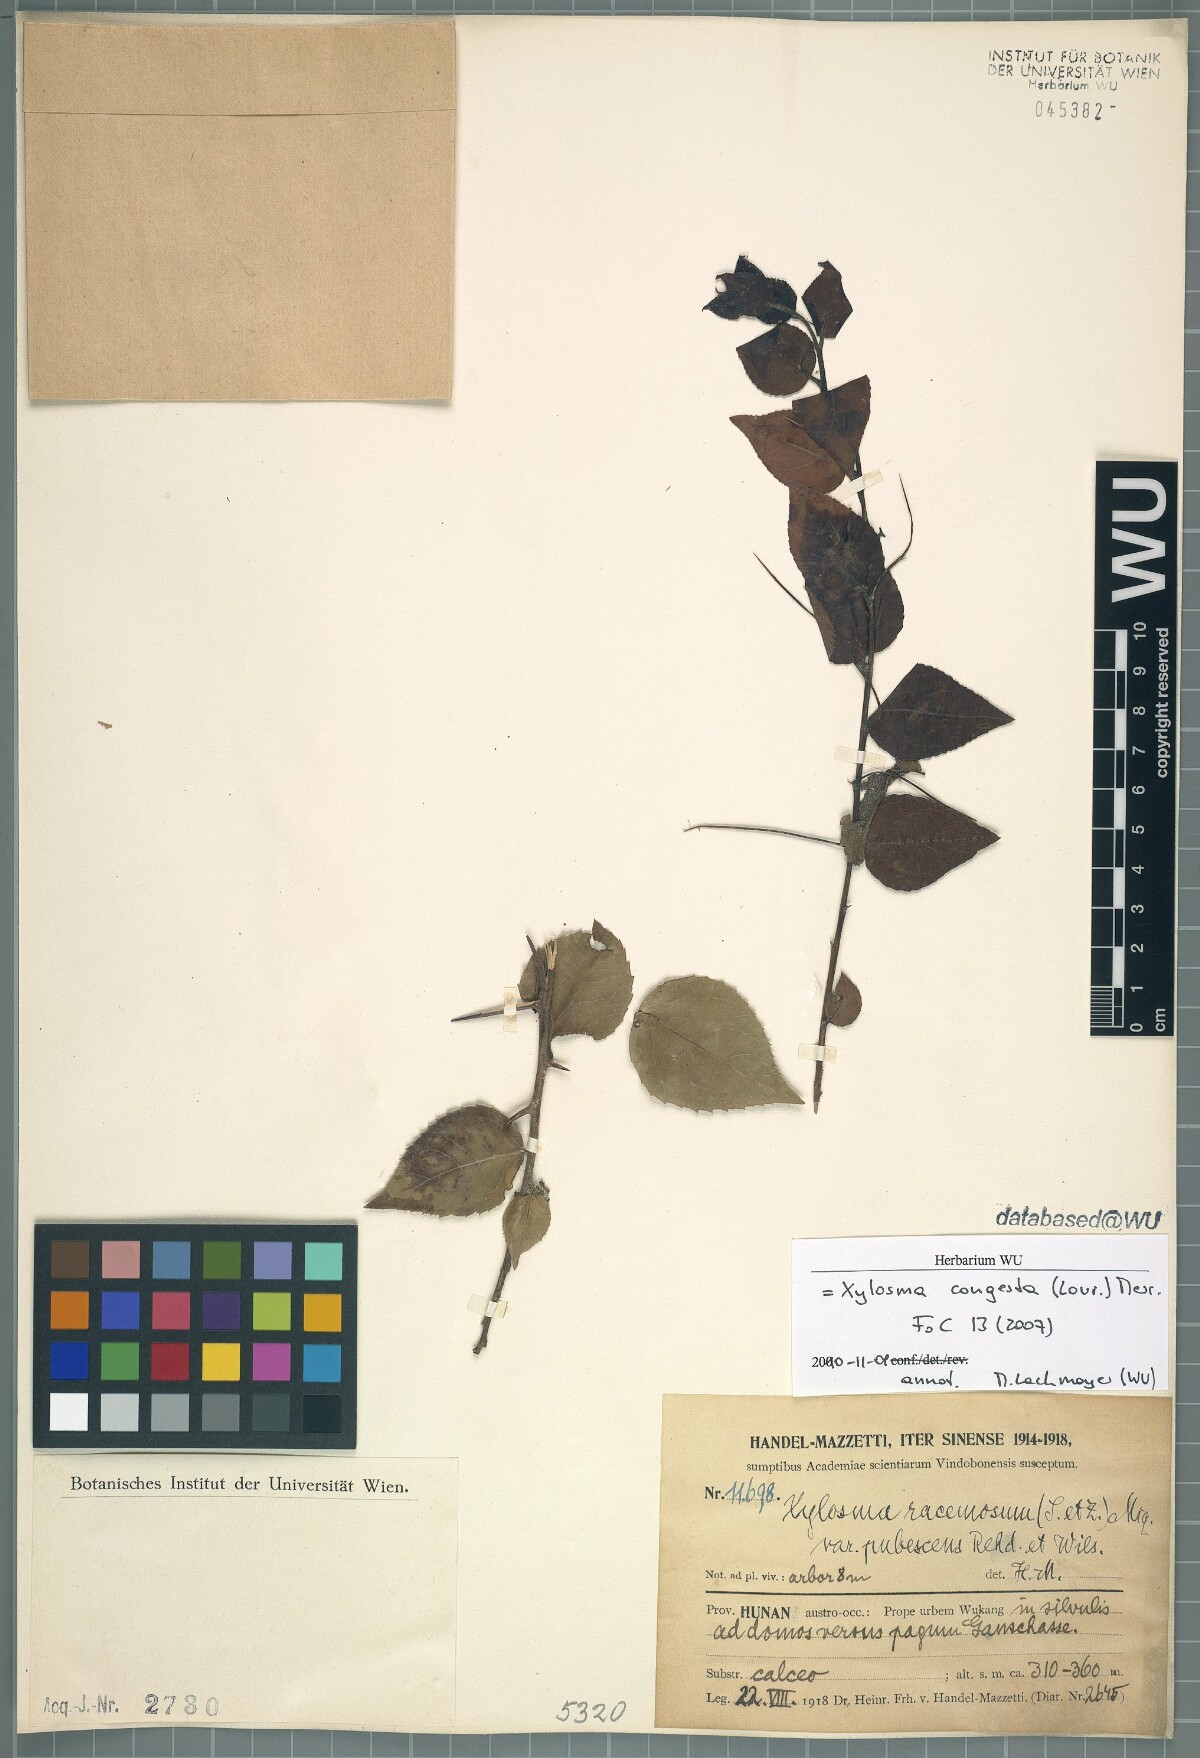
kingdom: Plantae
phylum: Tracheophyta
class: Magnoliopsida
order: Malpighiales
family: Salicaceae
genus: Xylosma
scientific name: Xylosma racemosum
